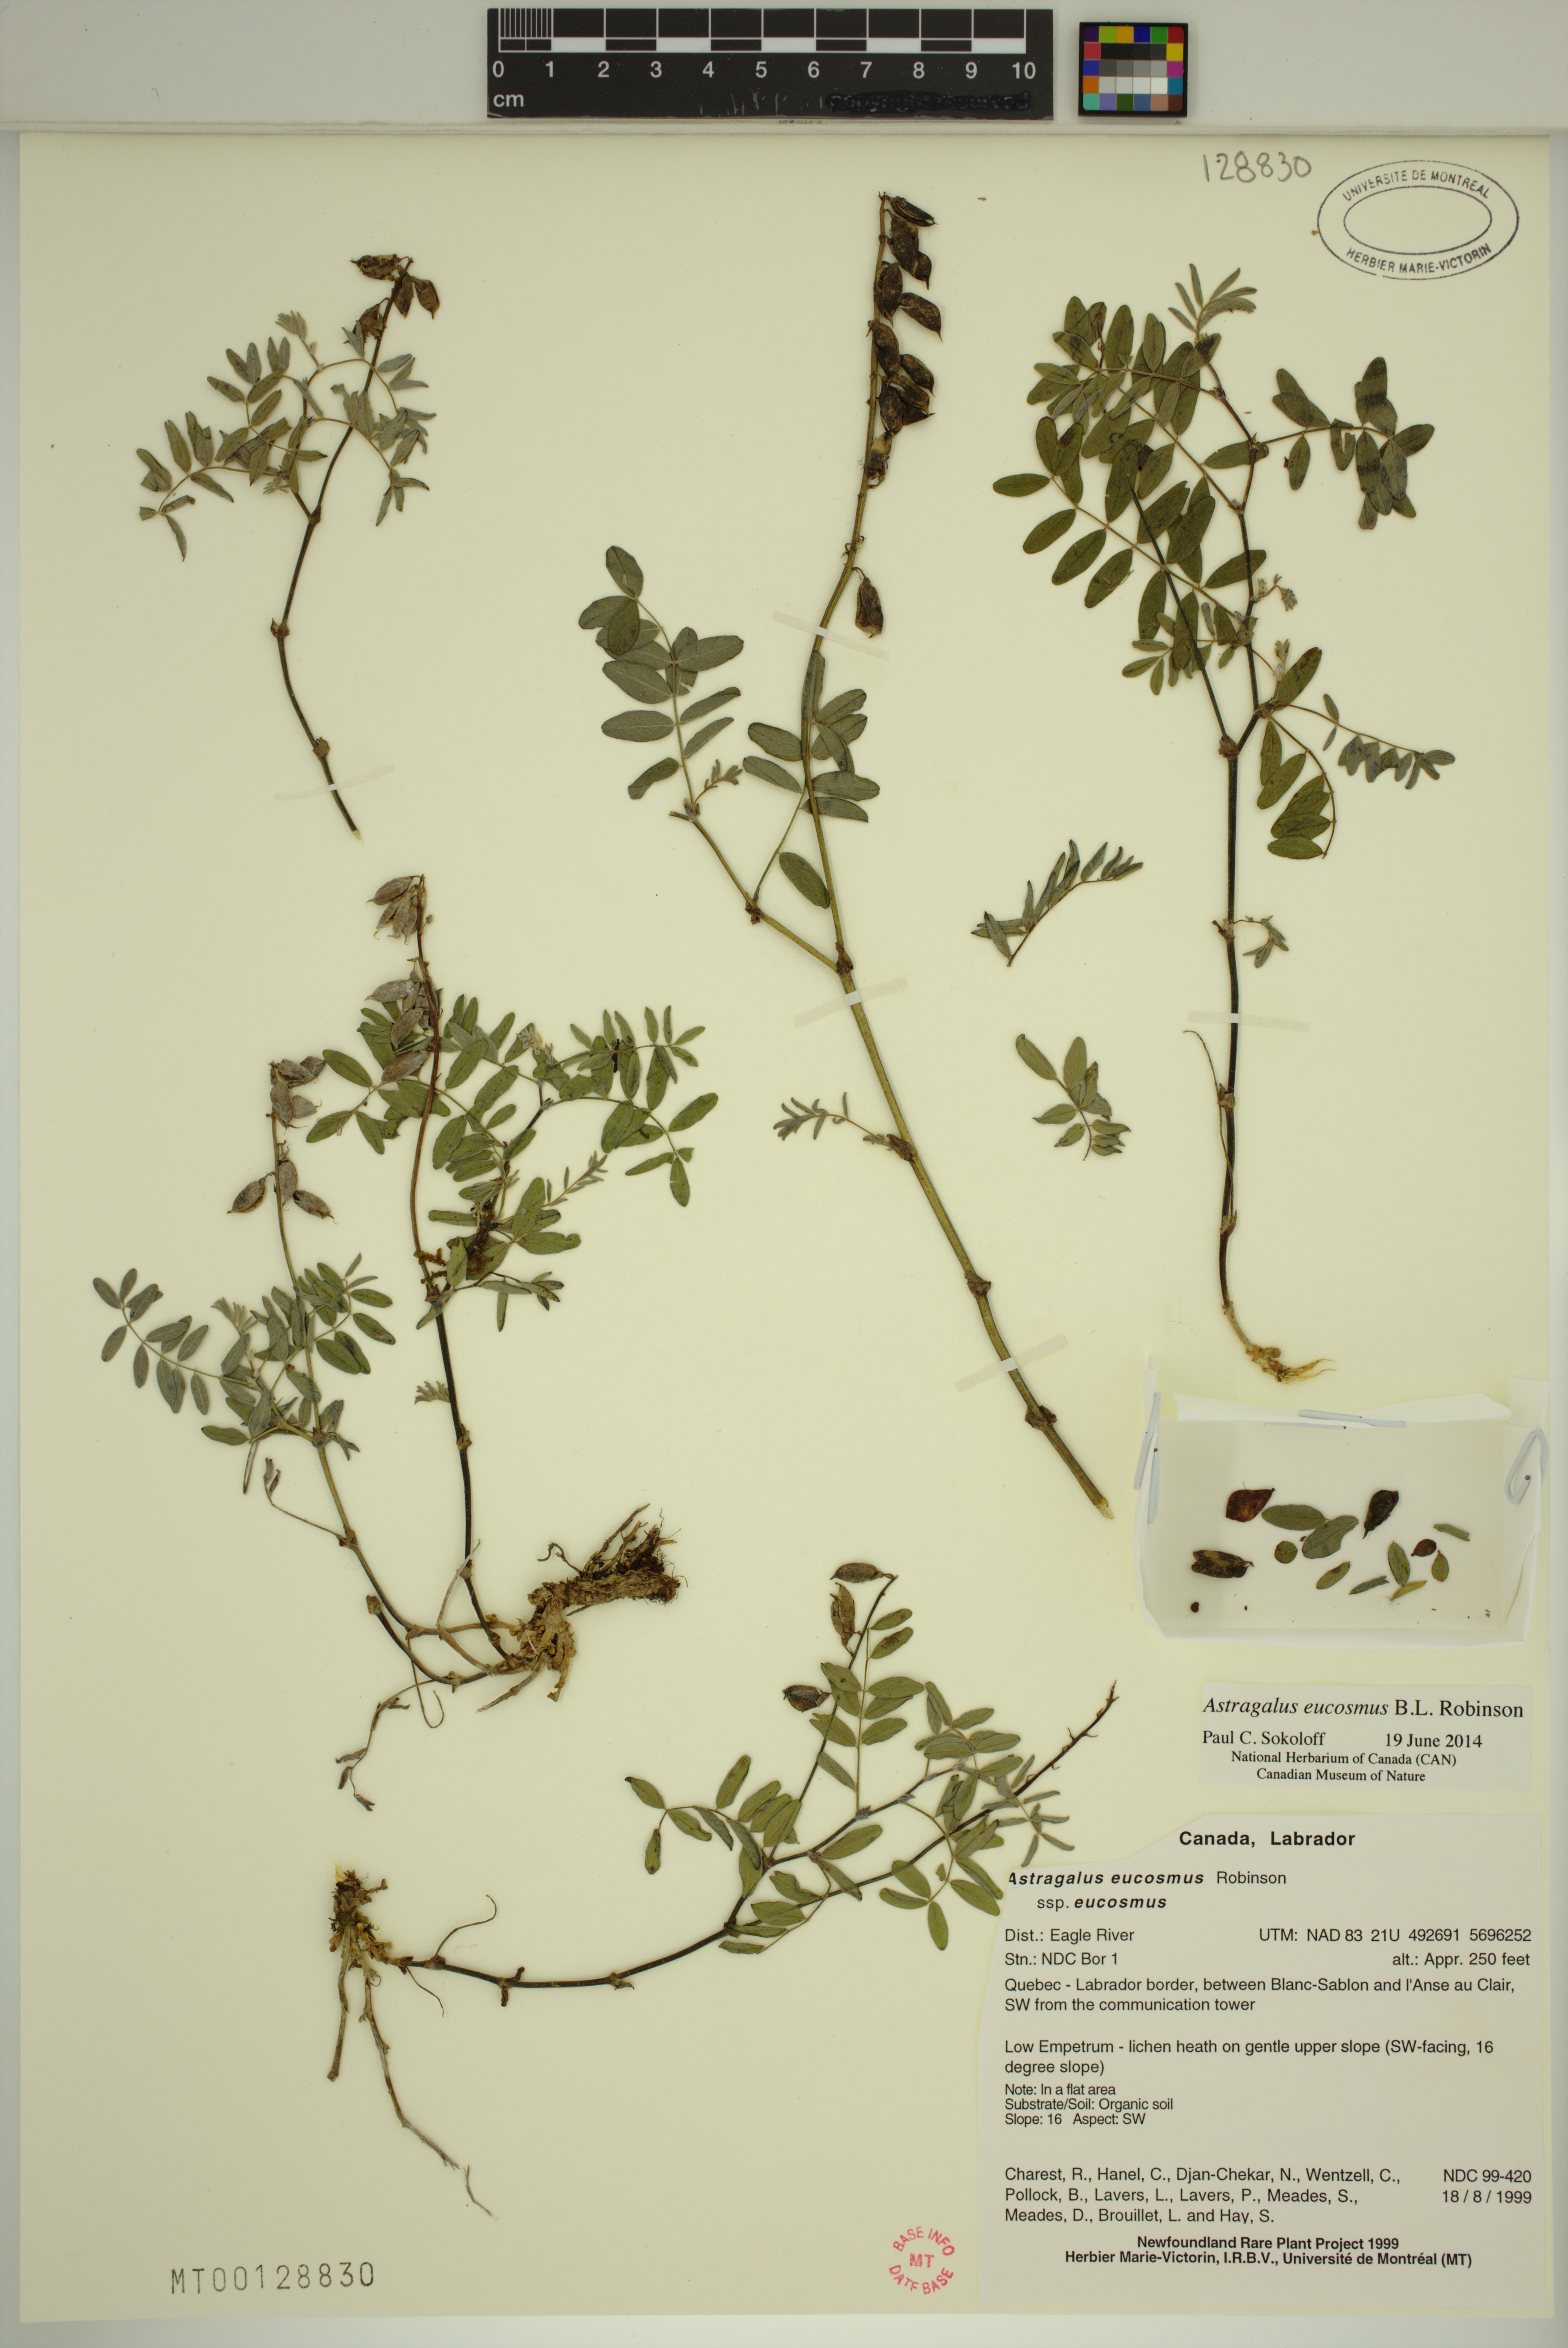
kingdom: Plantae
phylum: Tracheophyta
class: Magnoliopsida
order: Fabales
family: Fabaceae
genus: Astragalus
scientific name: Astragalus eucosmus
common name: Elegant milk-vetch
